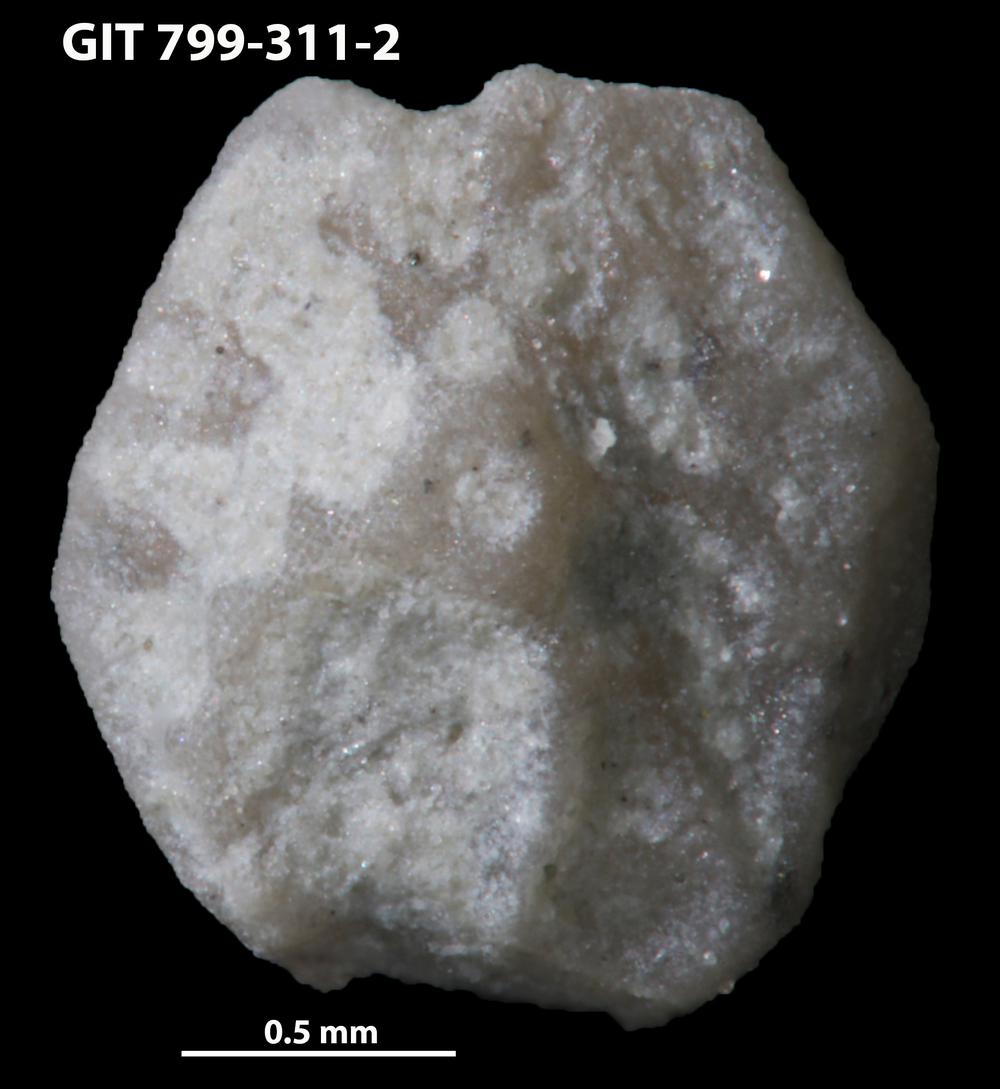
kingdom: Animalia
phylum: Echinodermata
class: Echinoidea
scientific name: Echinoidea
